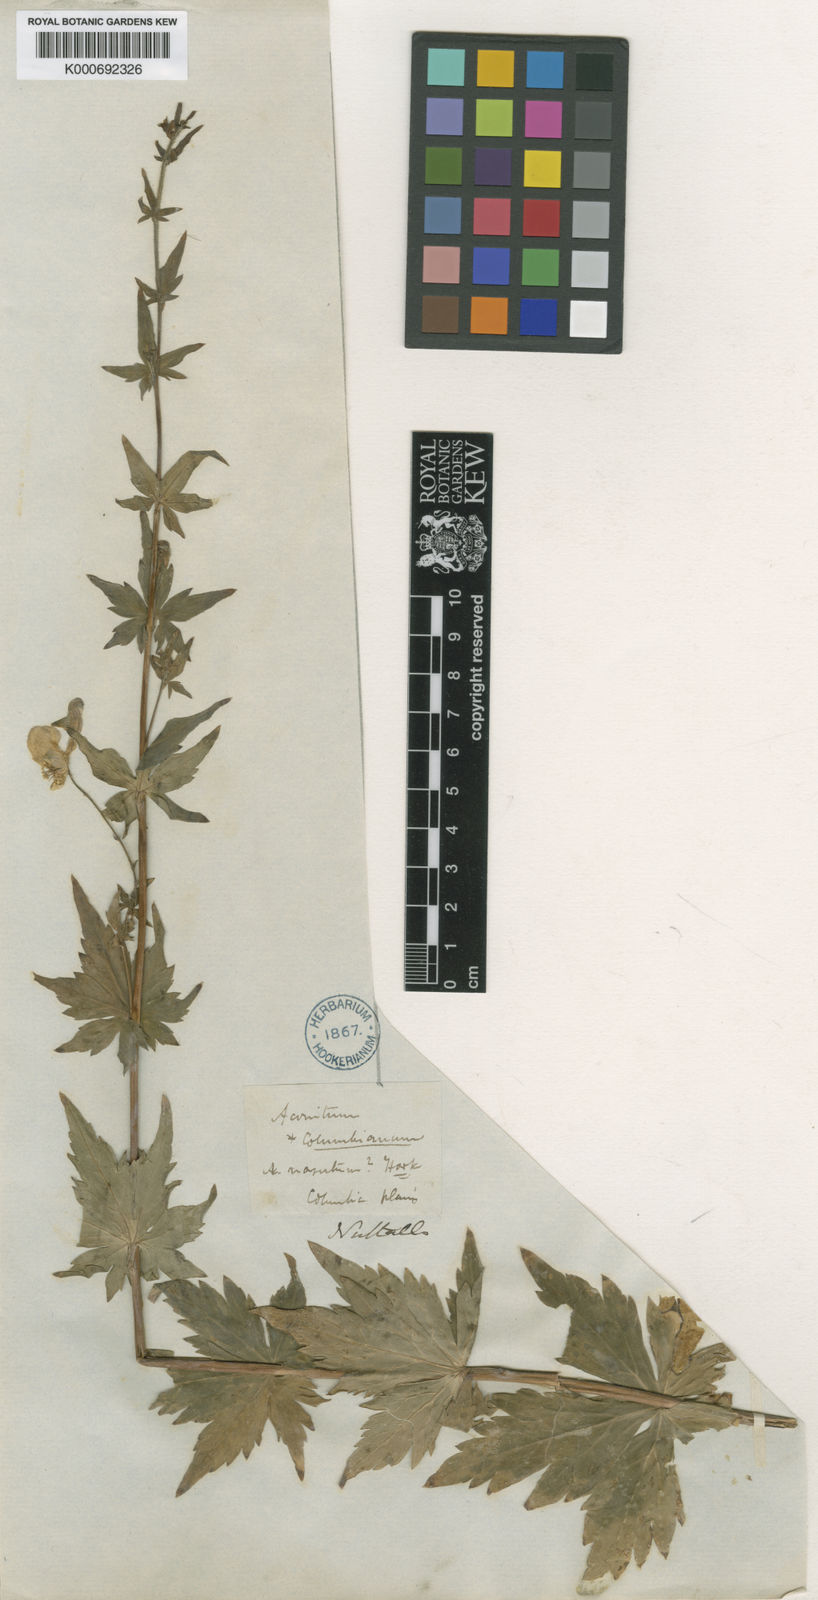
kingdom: Plantae
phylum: Tracheophyta
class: Magnoliopsida
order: Ranunculales
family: Ranunculaceae
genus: Aconitum
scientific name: Aconitum columbianum
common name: Columbia aconite
